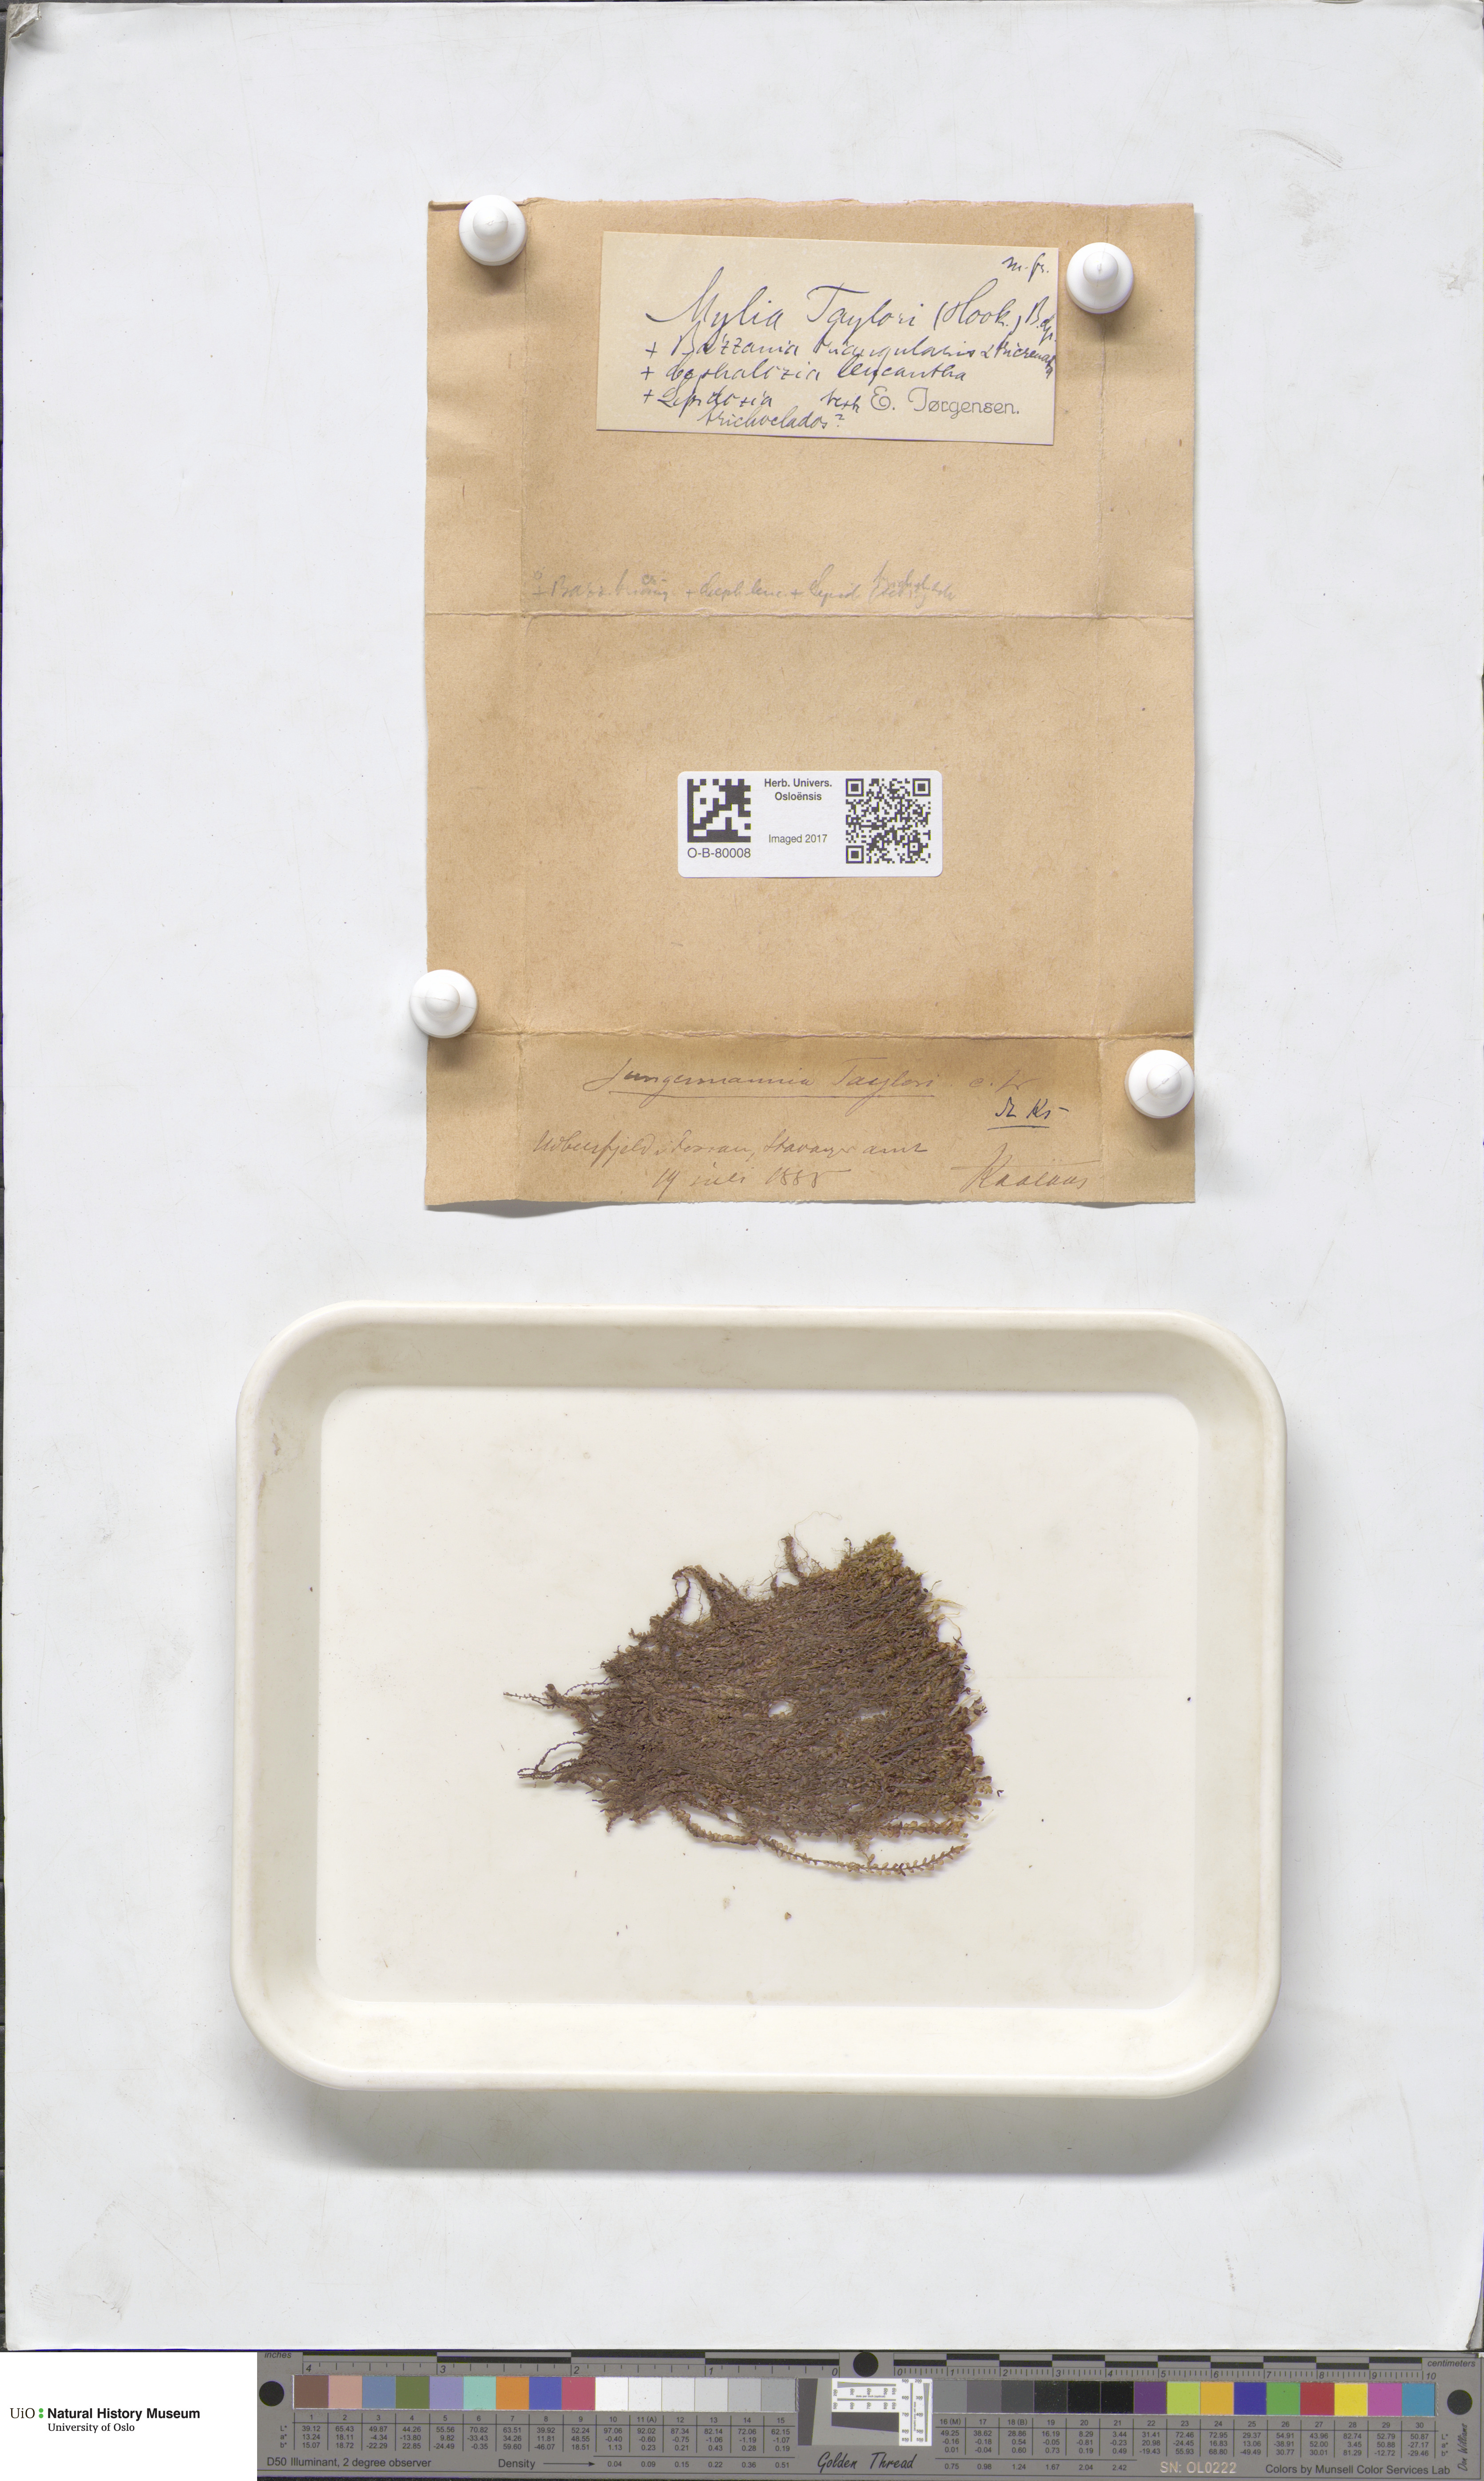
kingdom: Plantae
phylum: Marchantiophyta
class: Jungermanniopsida
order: Jungermanniales
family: Myliaceae
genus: Mylia
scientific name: Mylia taylorii
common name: Taylor s flapwort
